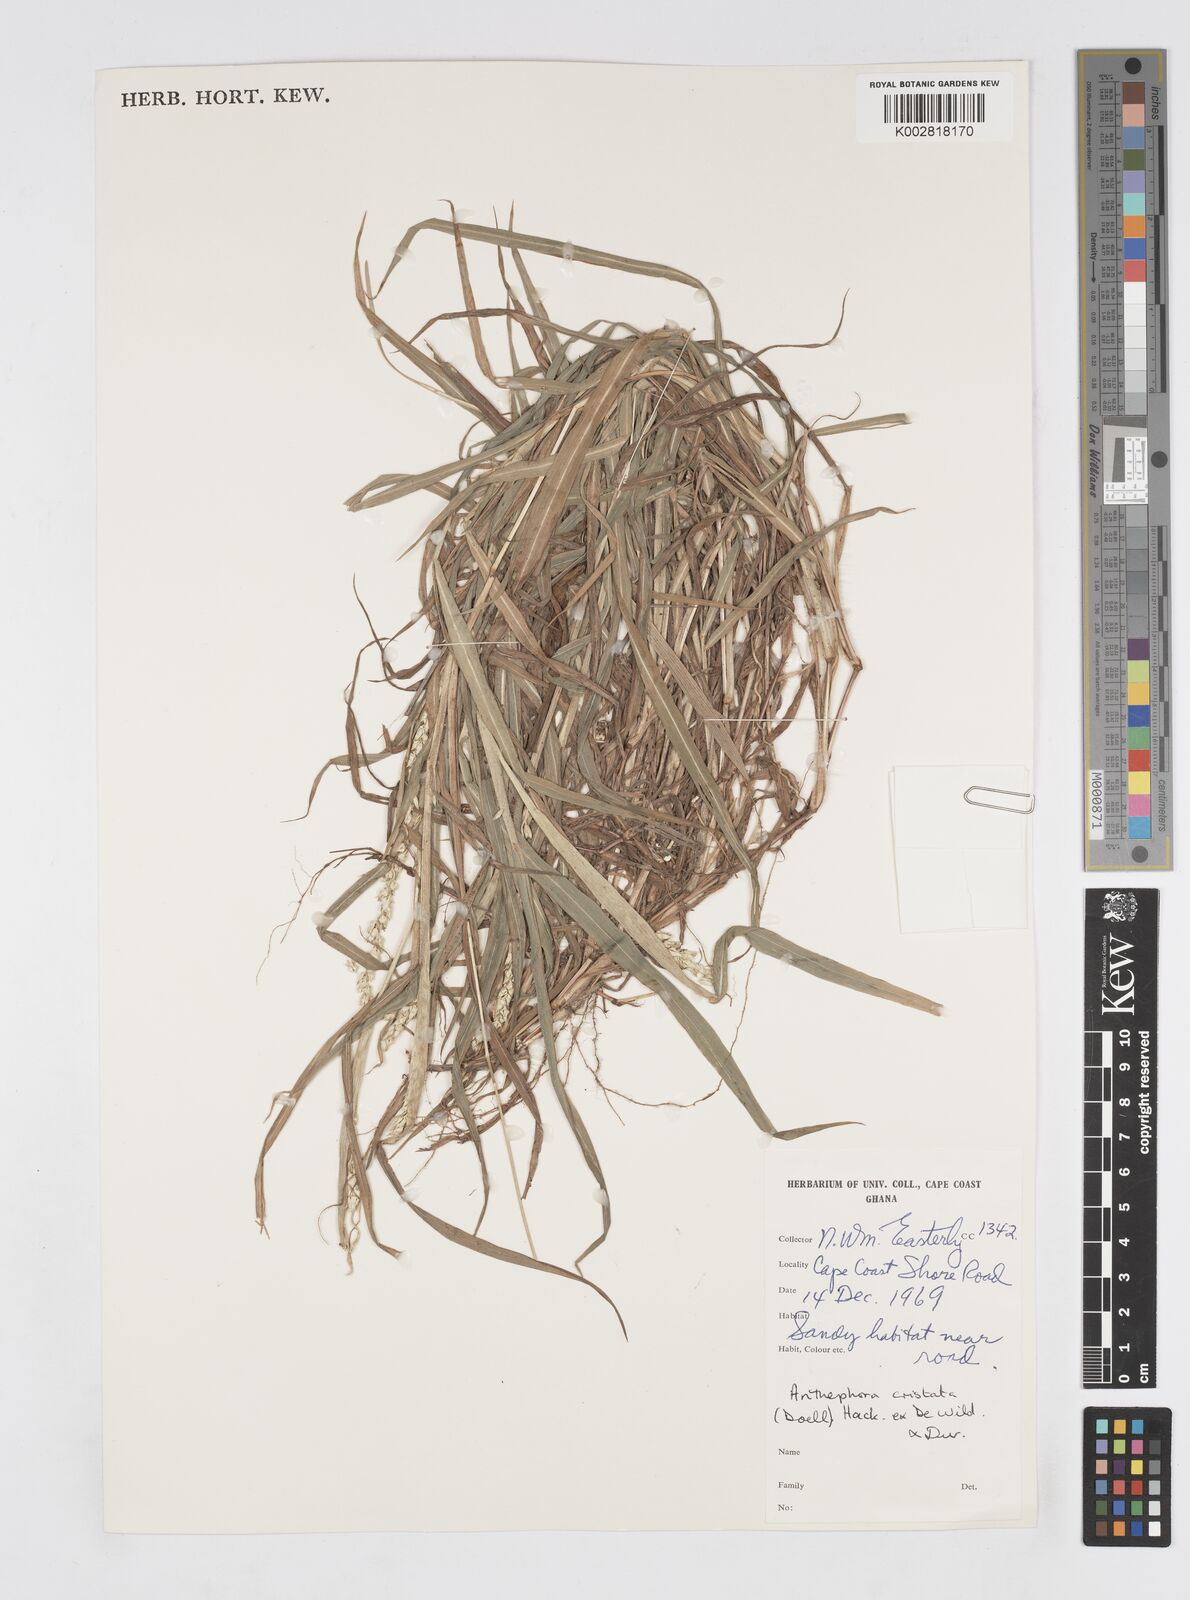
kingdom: Plantae
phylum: Tracheophyta
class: Liliopsida
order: Poales
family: Poaceae
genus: Anthephora
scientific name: Anthephora cristata
